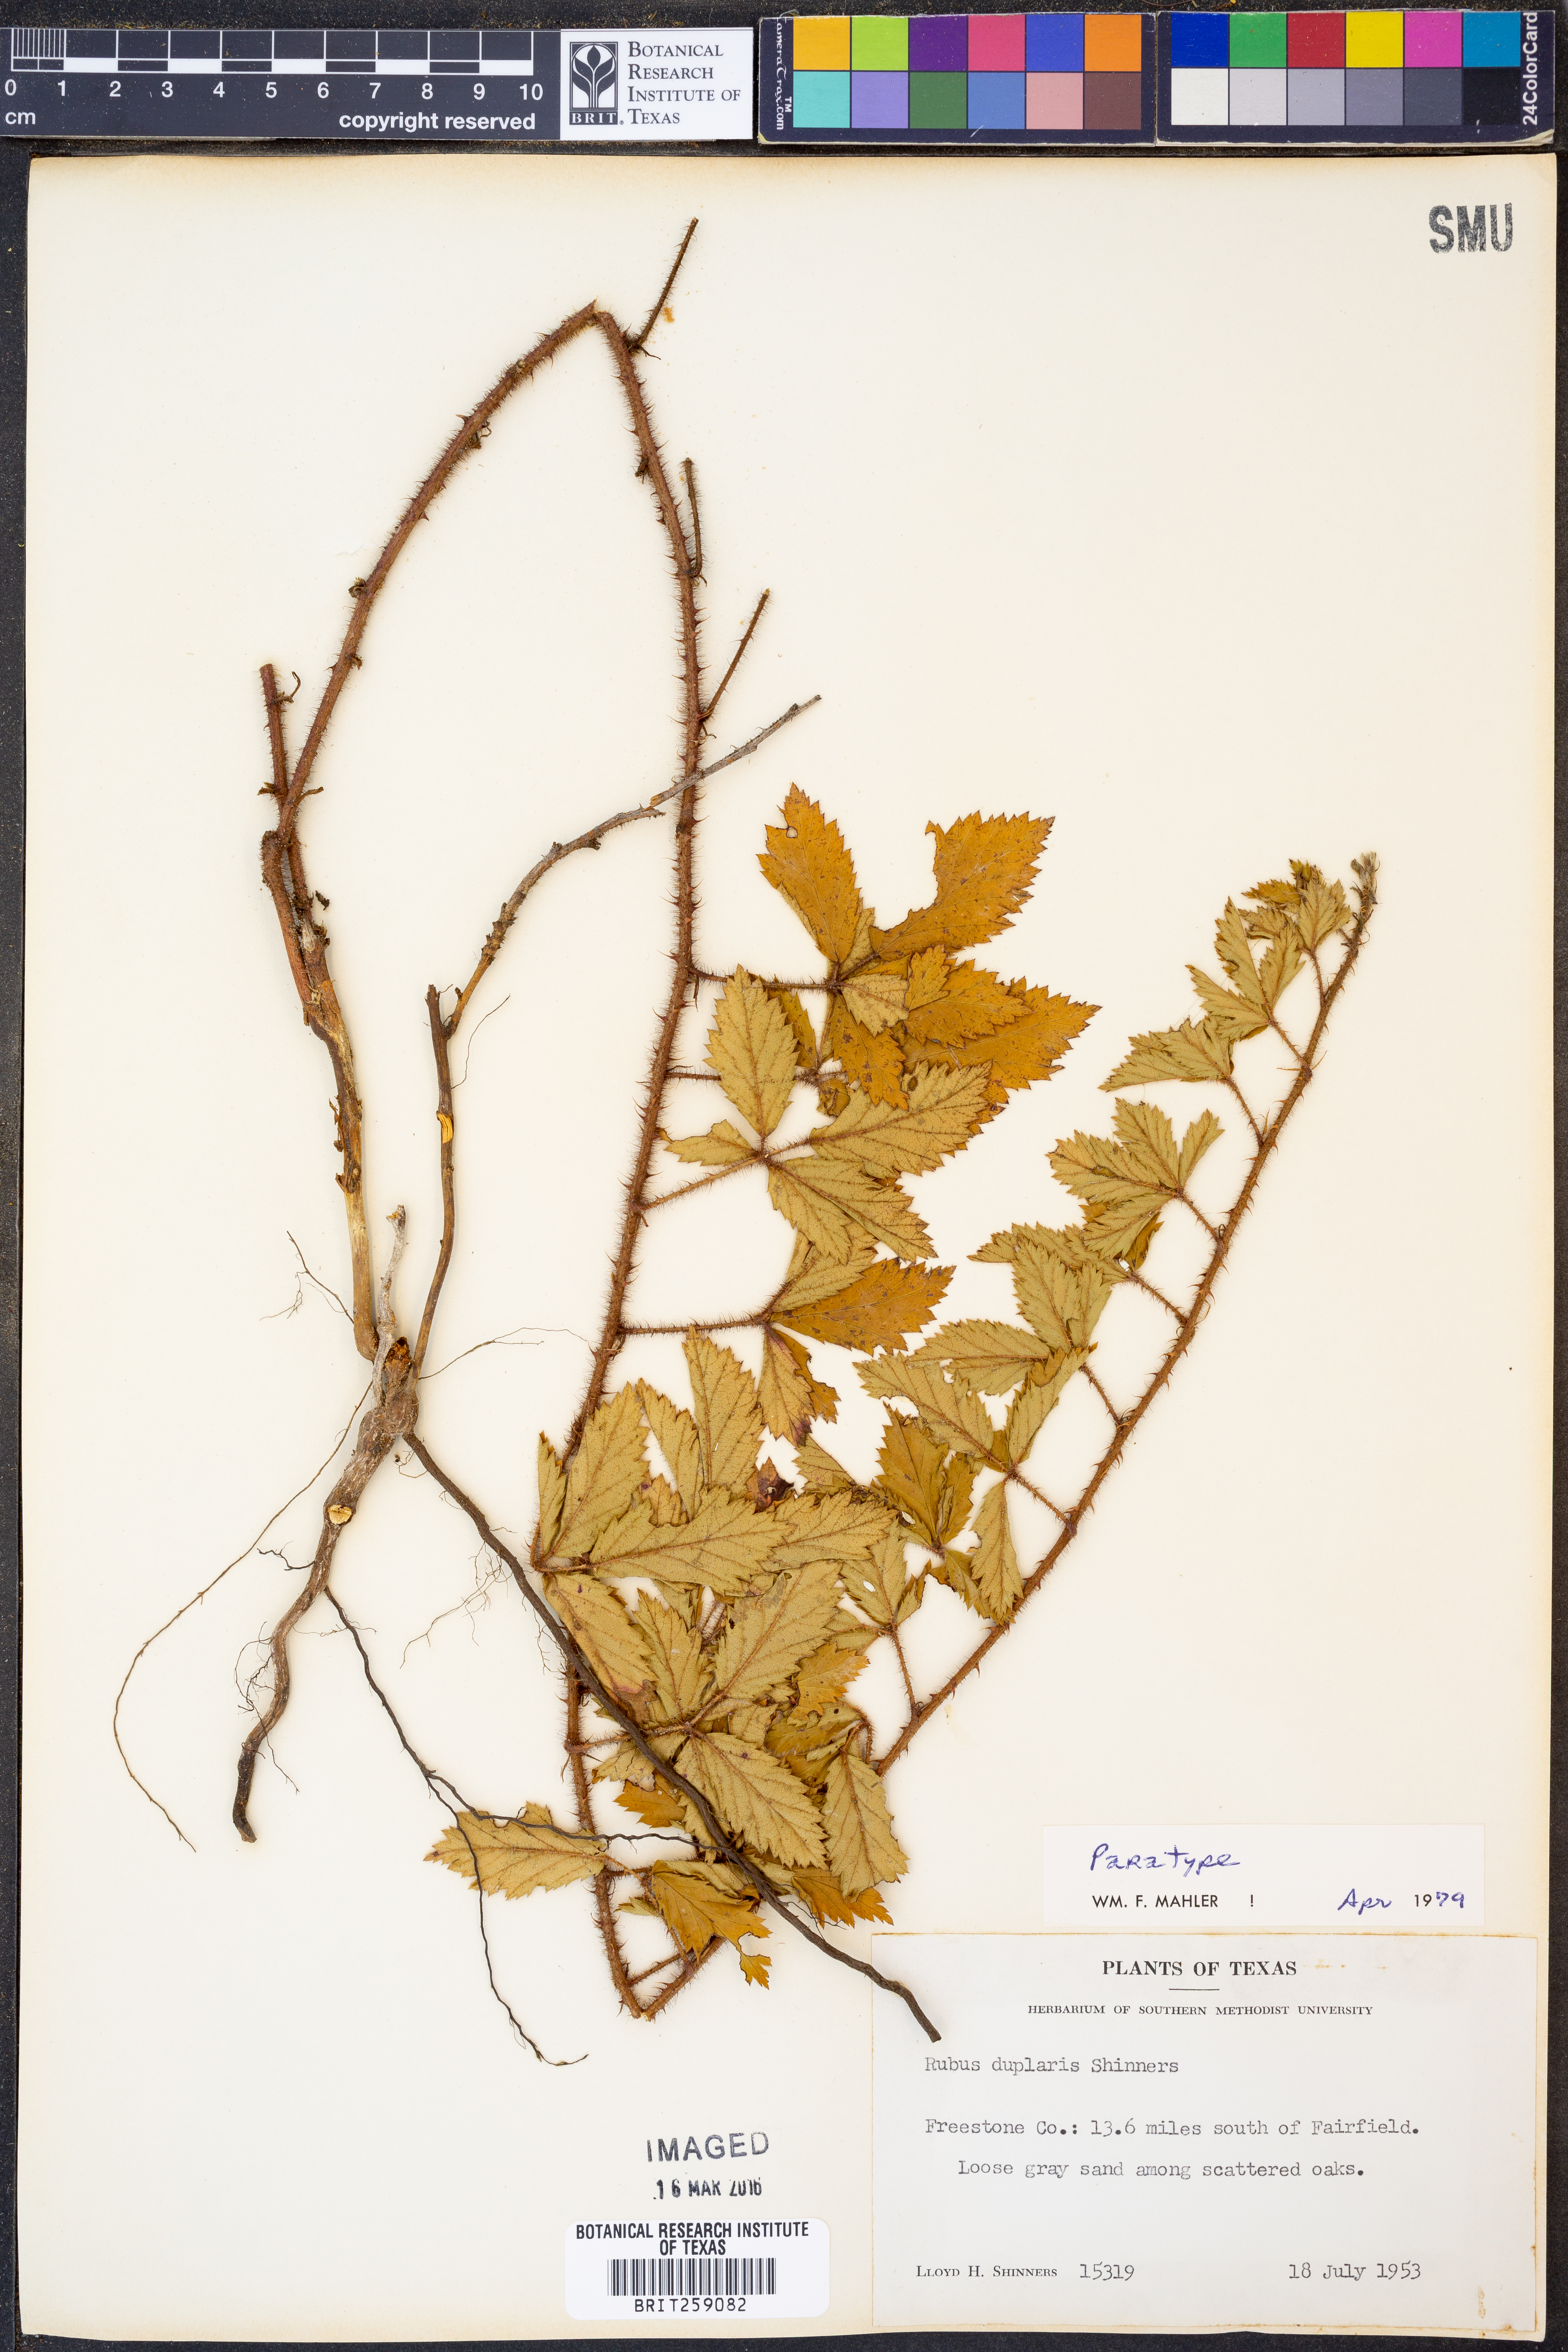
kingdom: Plantae
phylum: Tracheophyta
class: Magnoliopsida
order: Rosales
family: Rosaceae
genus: Rubus
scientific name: Rubus riograndis
